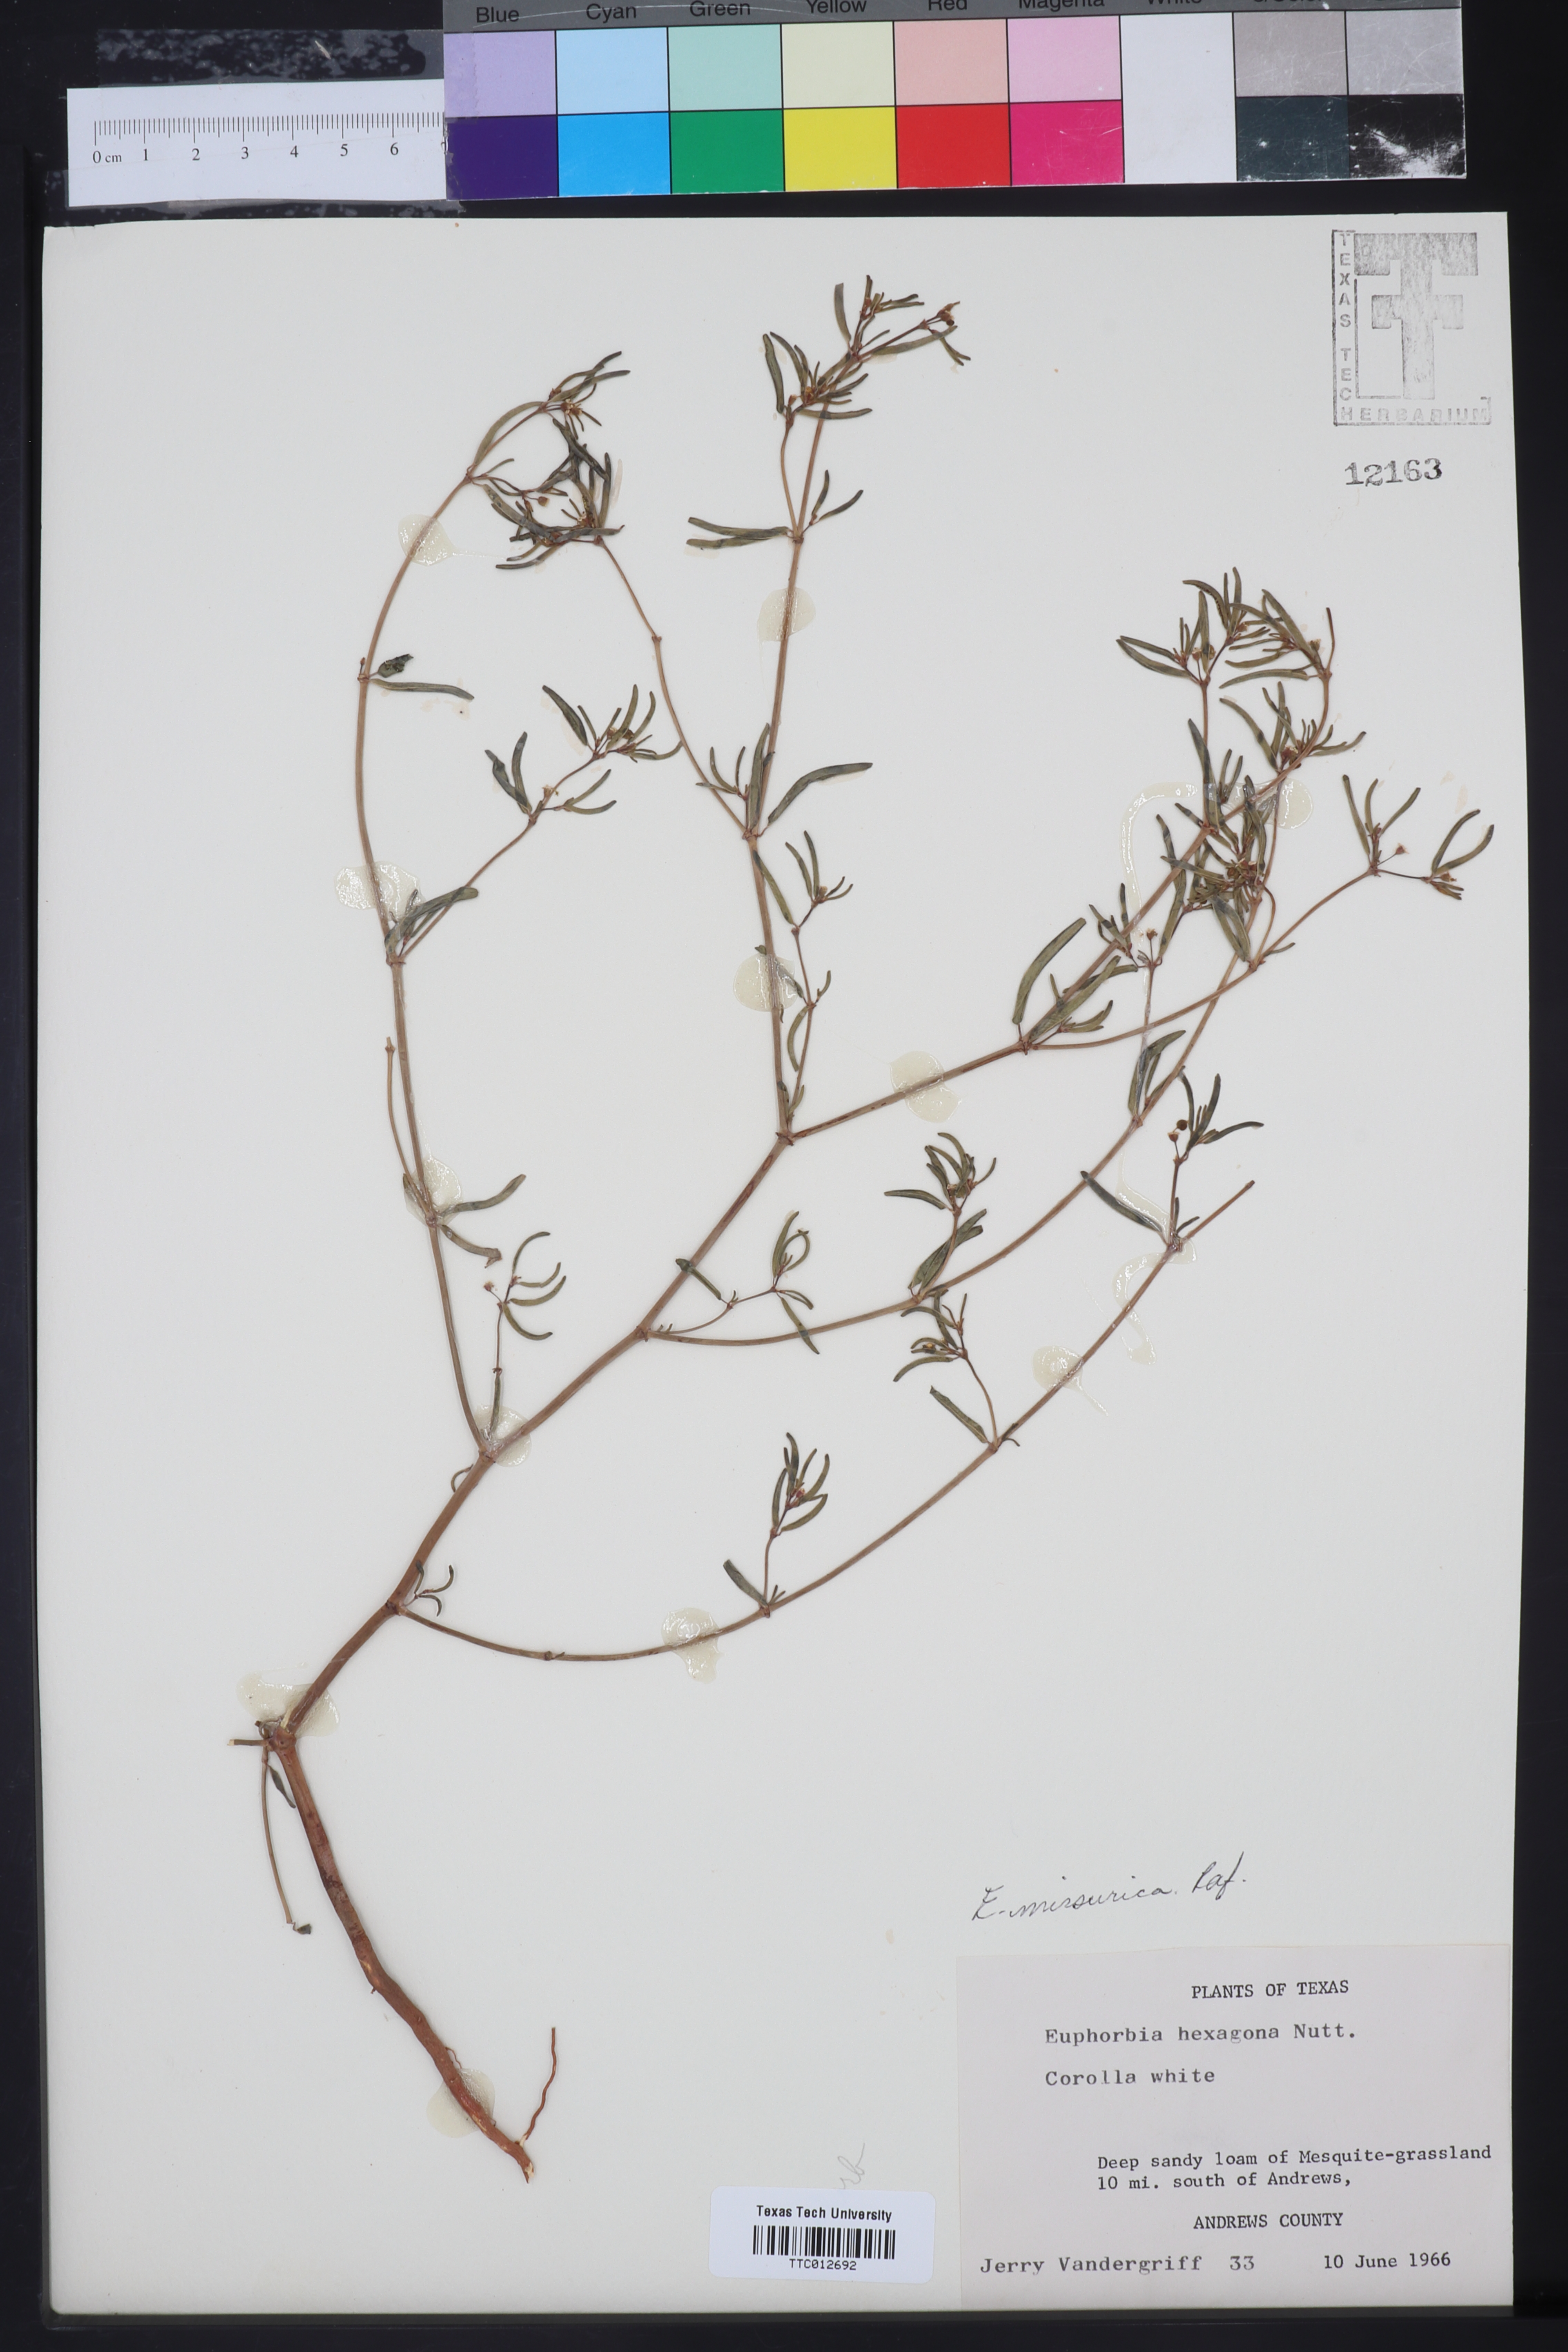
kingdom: Plantae
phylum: Tracheophyta
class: Magnoliopsida
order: Malpighiales
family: Euphorbiaceae
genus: Euphorbia
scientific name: Euphorbia hexagona
